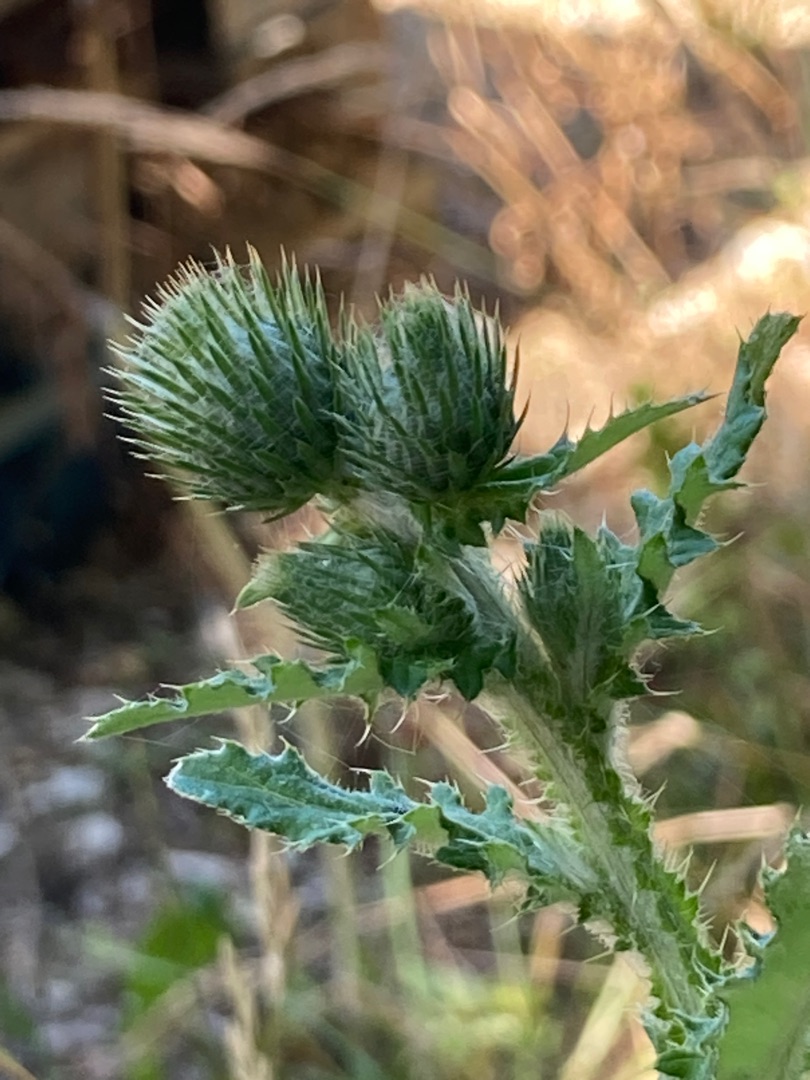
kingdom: Plantae
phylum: Tracheophyta
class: Magnoliopsida
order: Asterales
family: Asteraceae
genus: Carduus
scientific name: Carduus crispus
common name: Kruset tidsel
